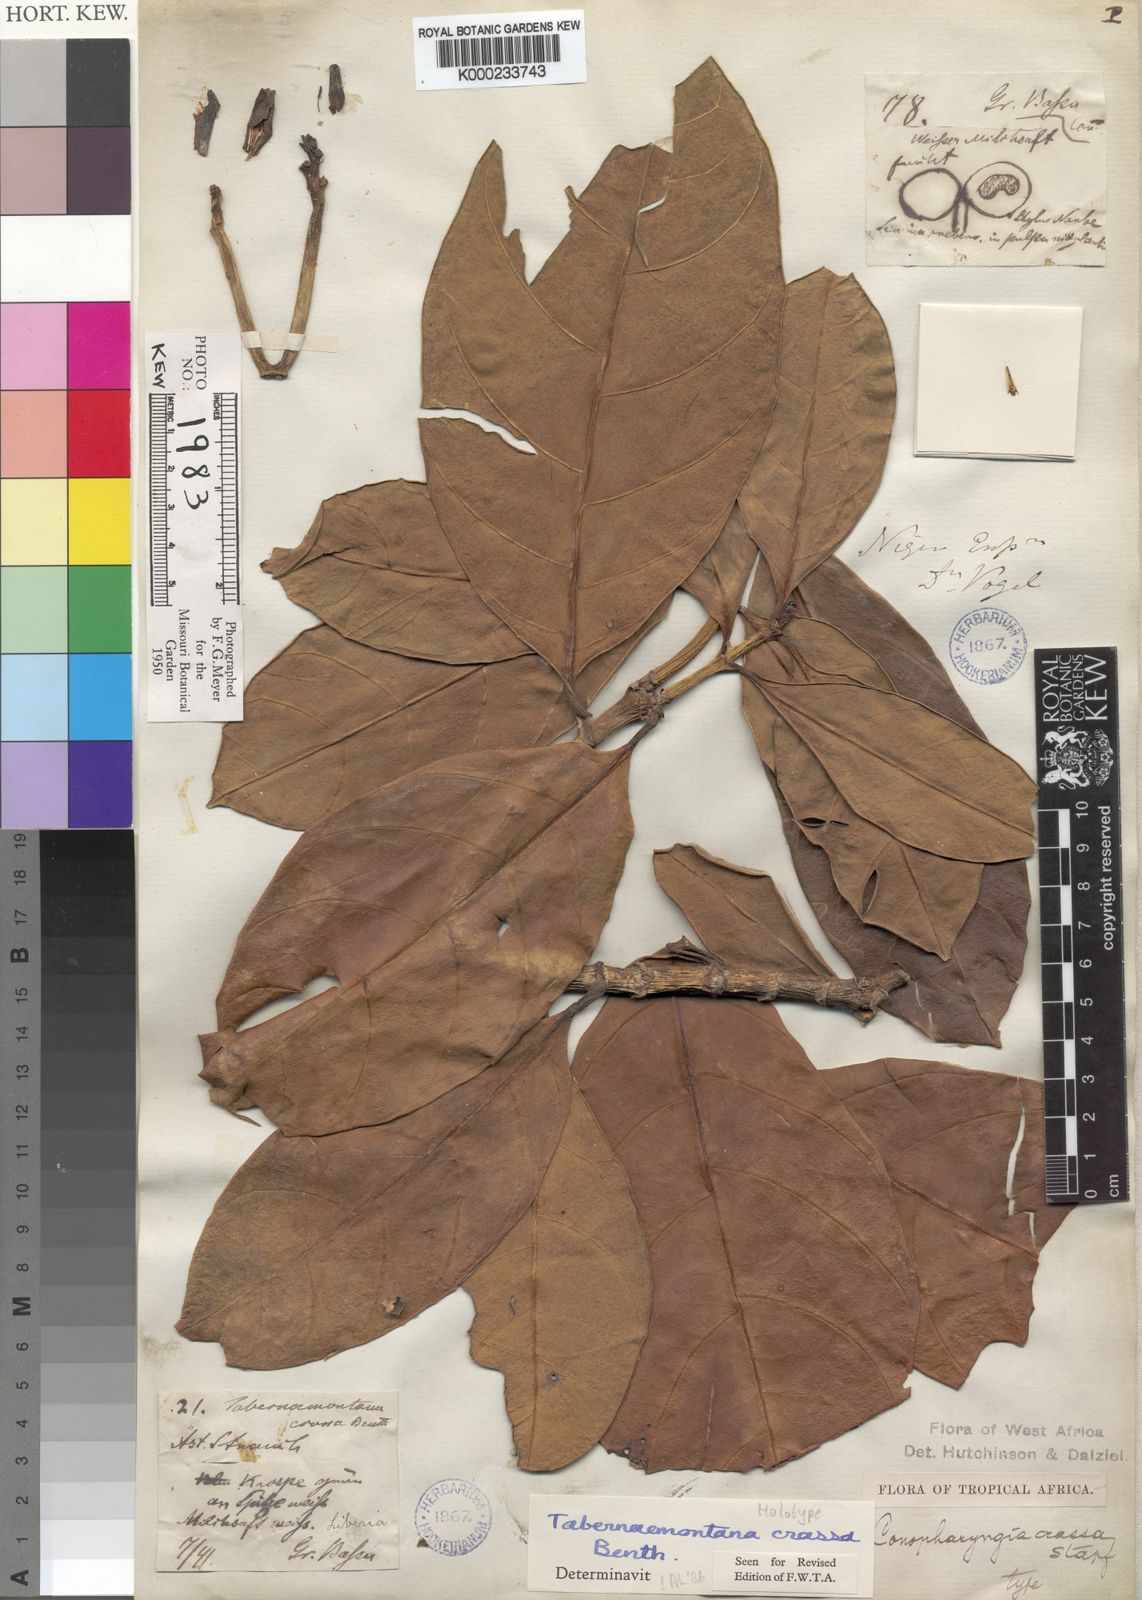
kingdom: Plantae
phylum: Tracheophyta
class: Magnoliopsida
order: Gentianales
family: Apocynaceae
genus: Tabernaemontana
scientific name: Tabernaemontana crassa
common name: Adam's-apple-flower
